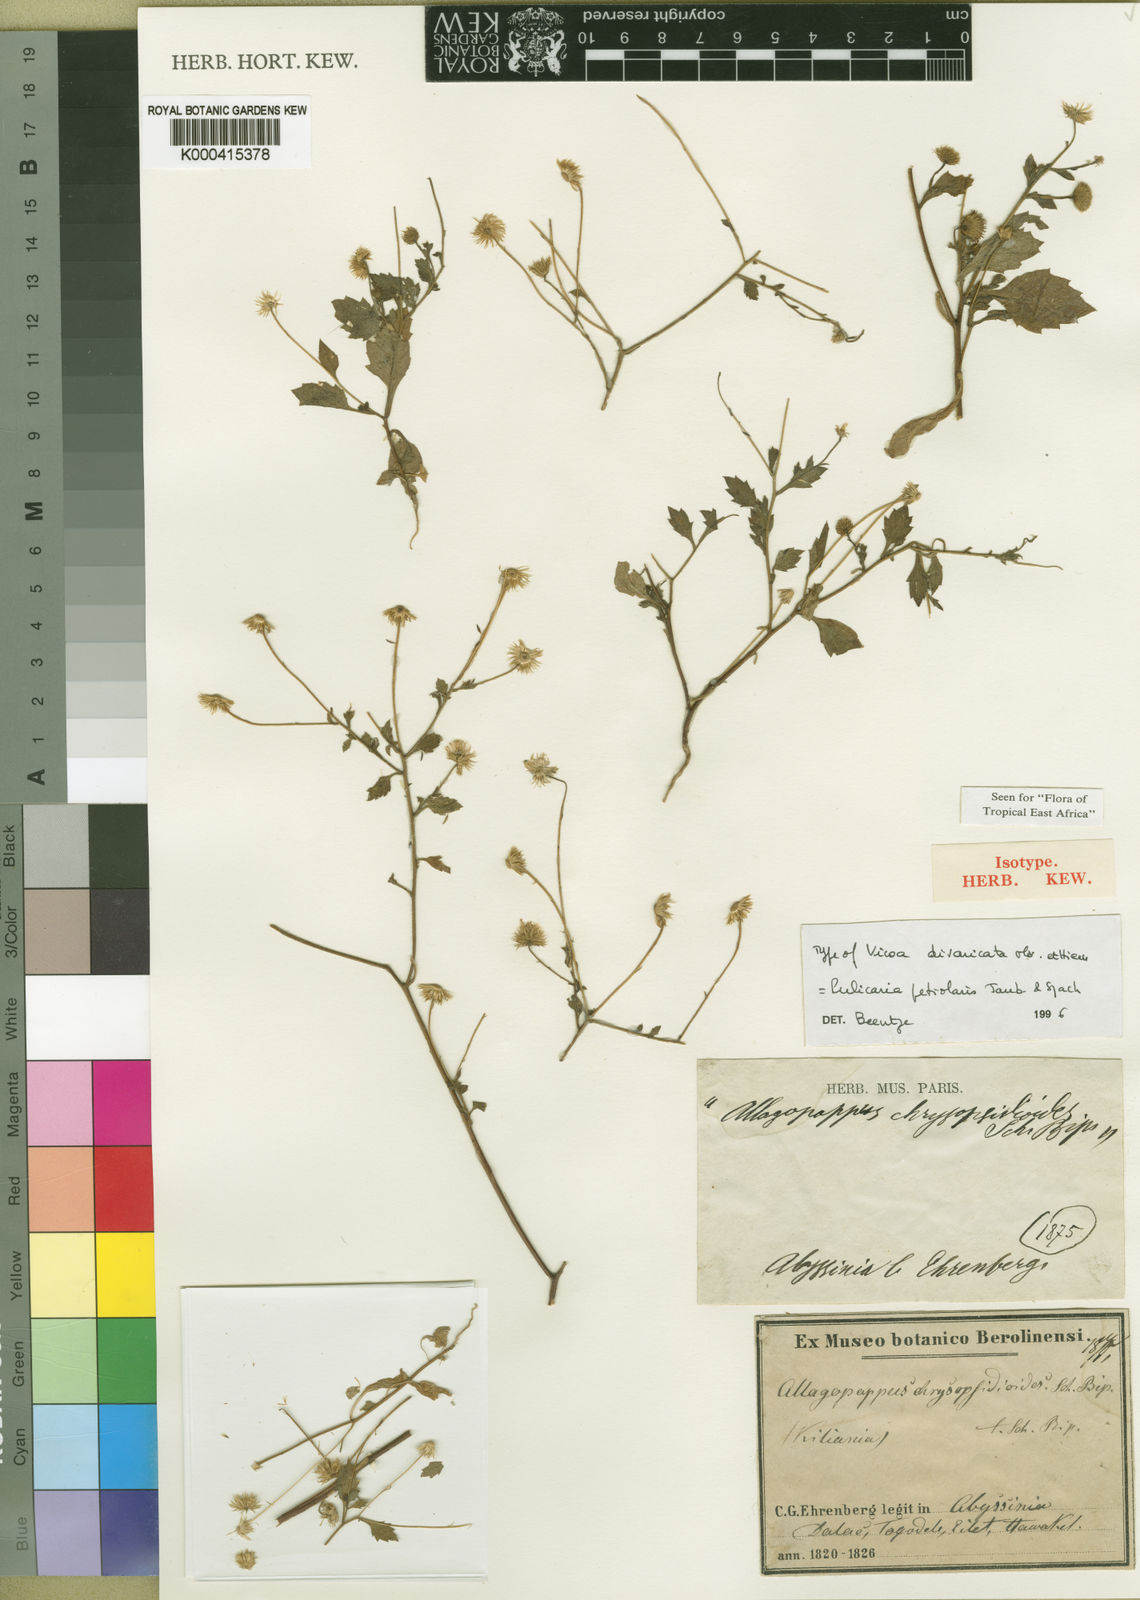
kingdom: Plantae
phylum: Tracheophyta
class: Magnoliopsida
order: Asterales
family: Asteraceae
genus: Pulicaria
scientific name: Pulicaria petiolaris
